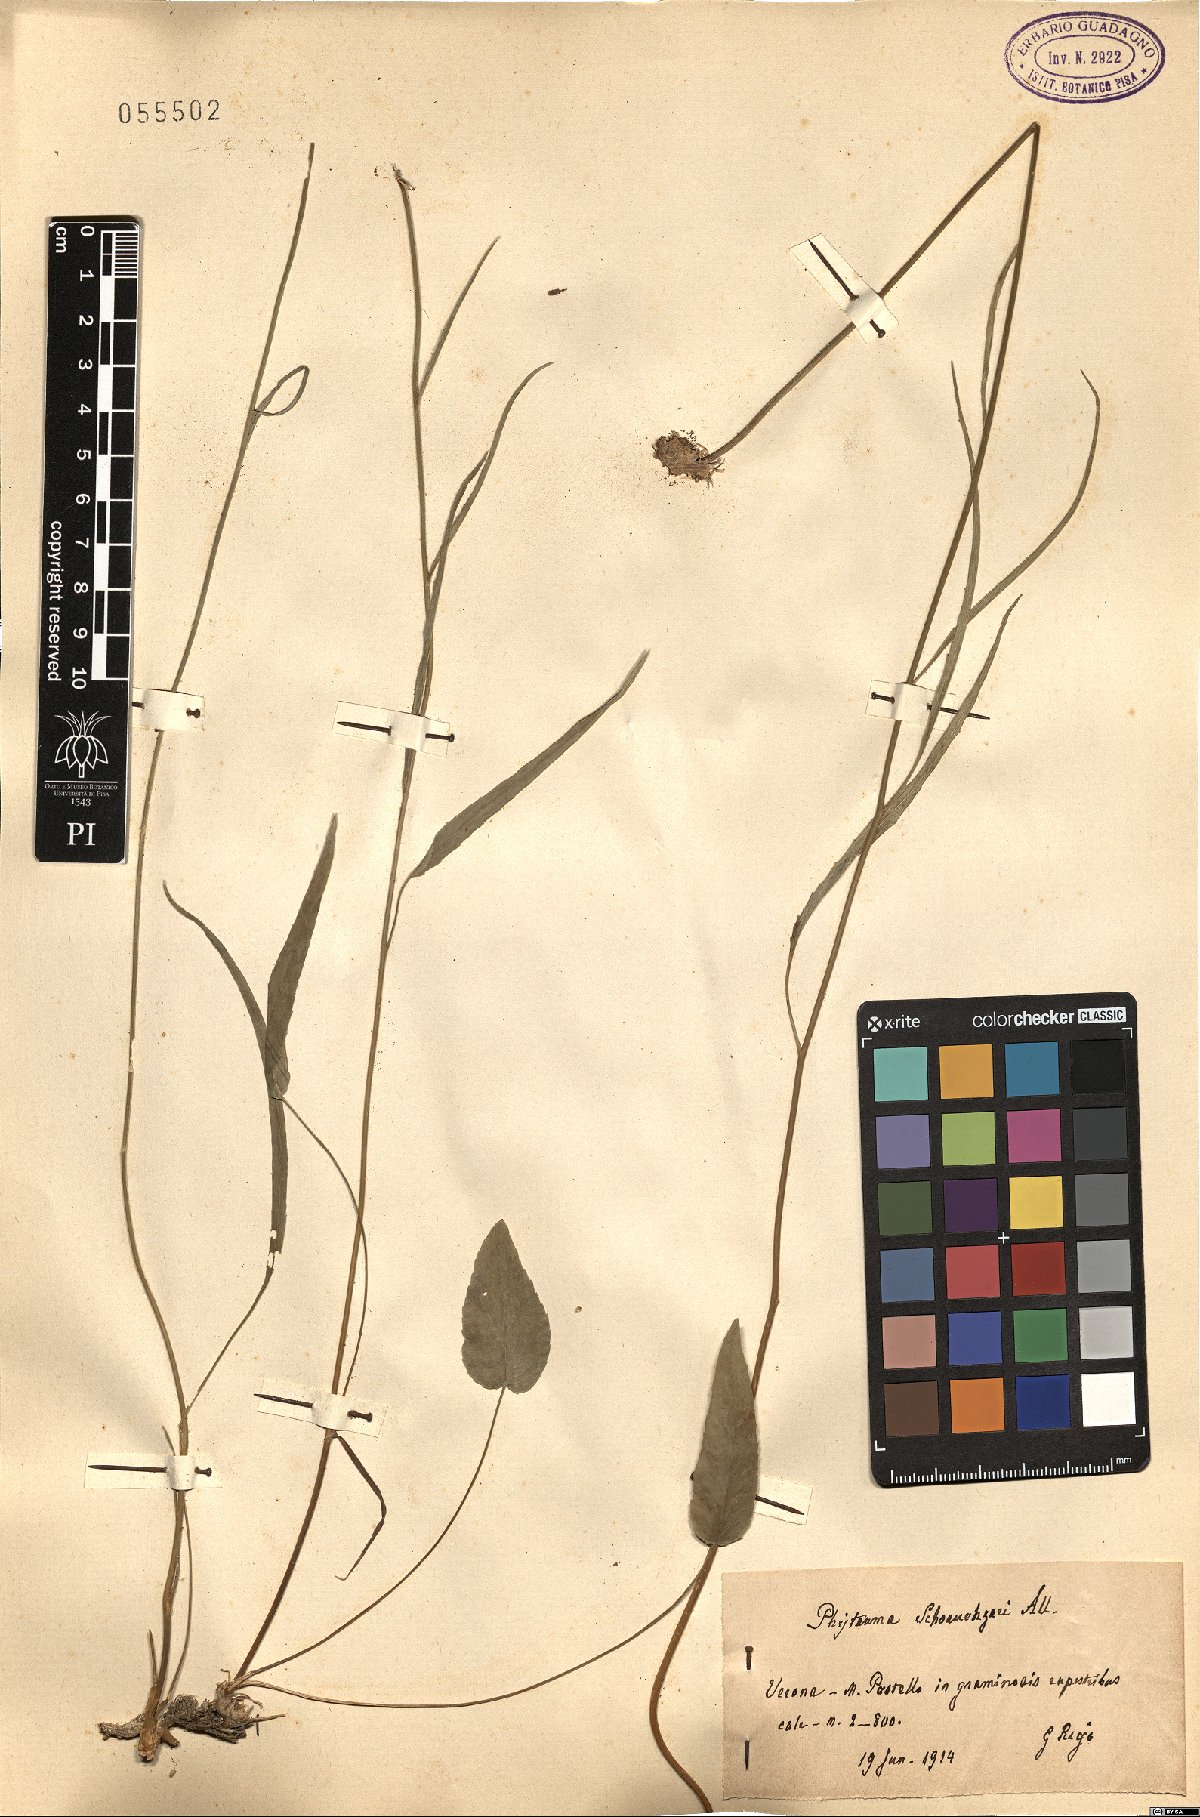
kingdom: Plantae
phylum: Tracheophyta
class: Magnoliopsida
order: Asterales
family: Campanulaceae
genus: Phyteuma
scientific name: Phyteuma scheuchzeri
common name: Oxford rampion
